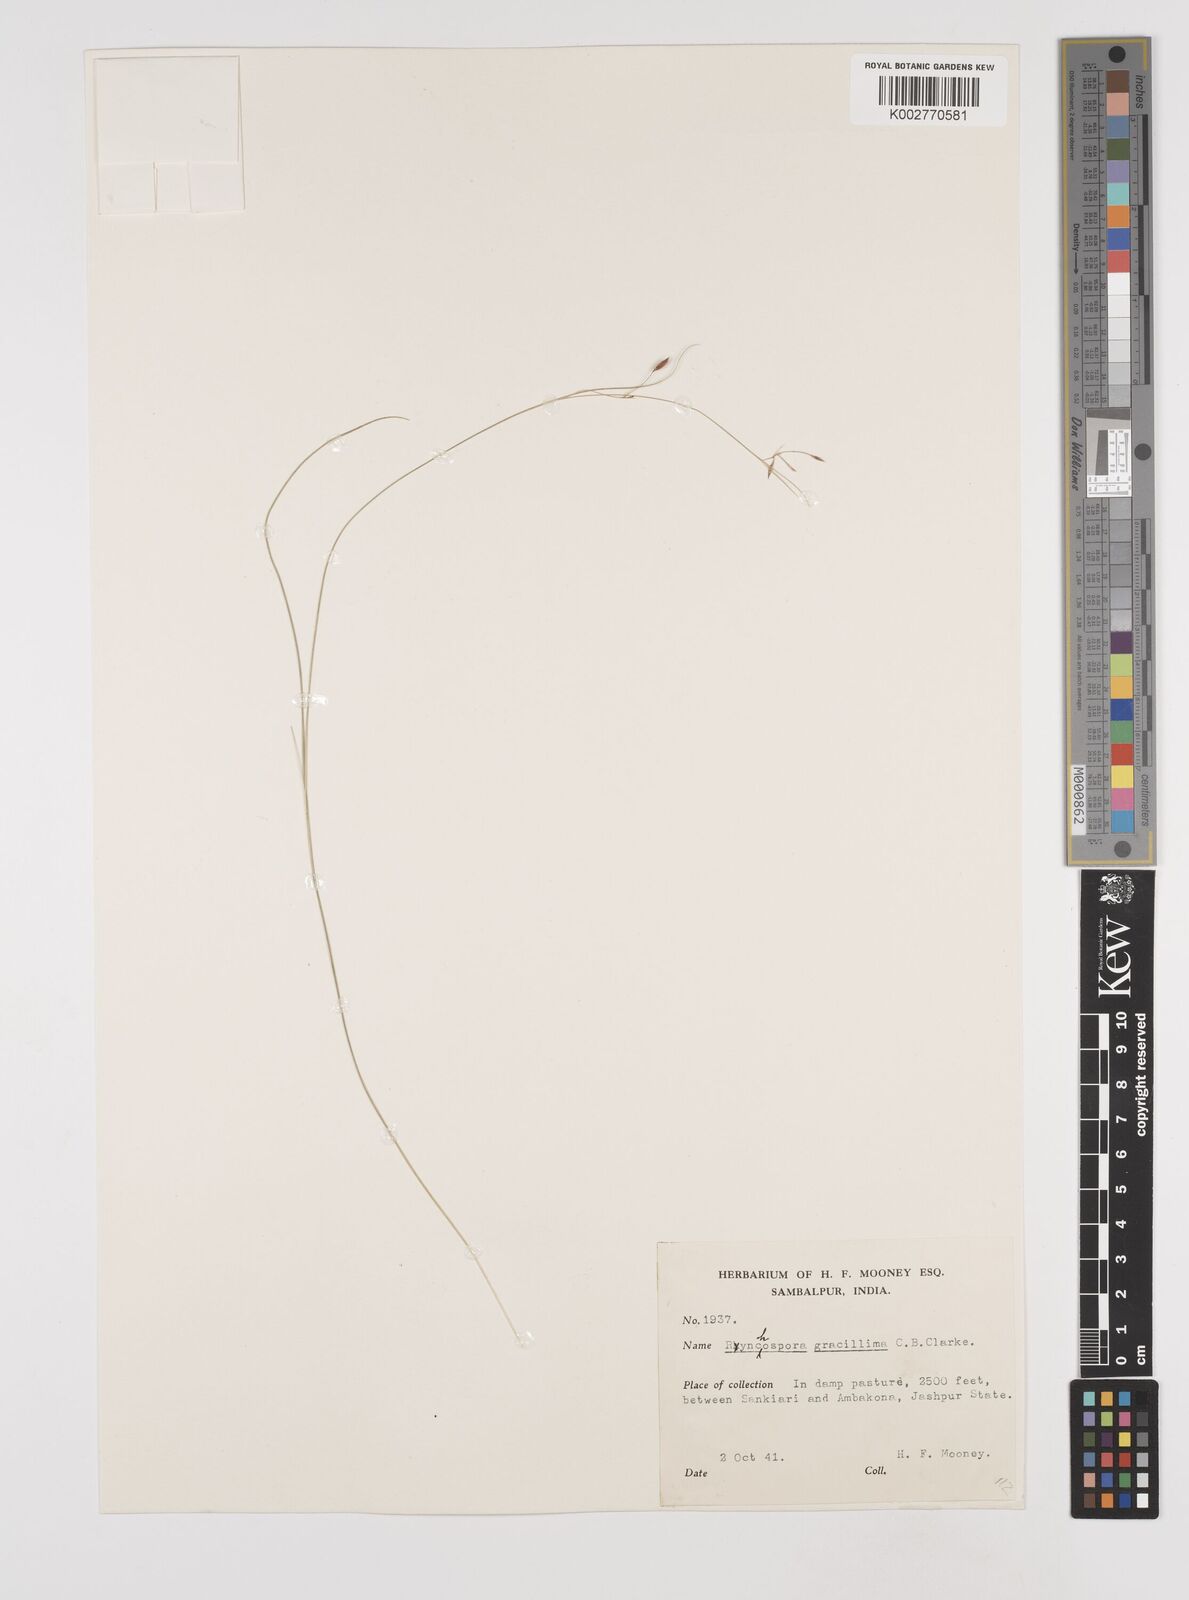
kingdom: Plantae
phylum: Tracheophyta
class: Liliopsida
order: Poales
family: Cyperaceae
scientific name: Cyperaceae
